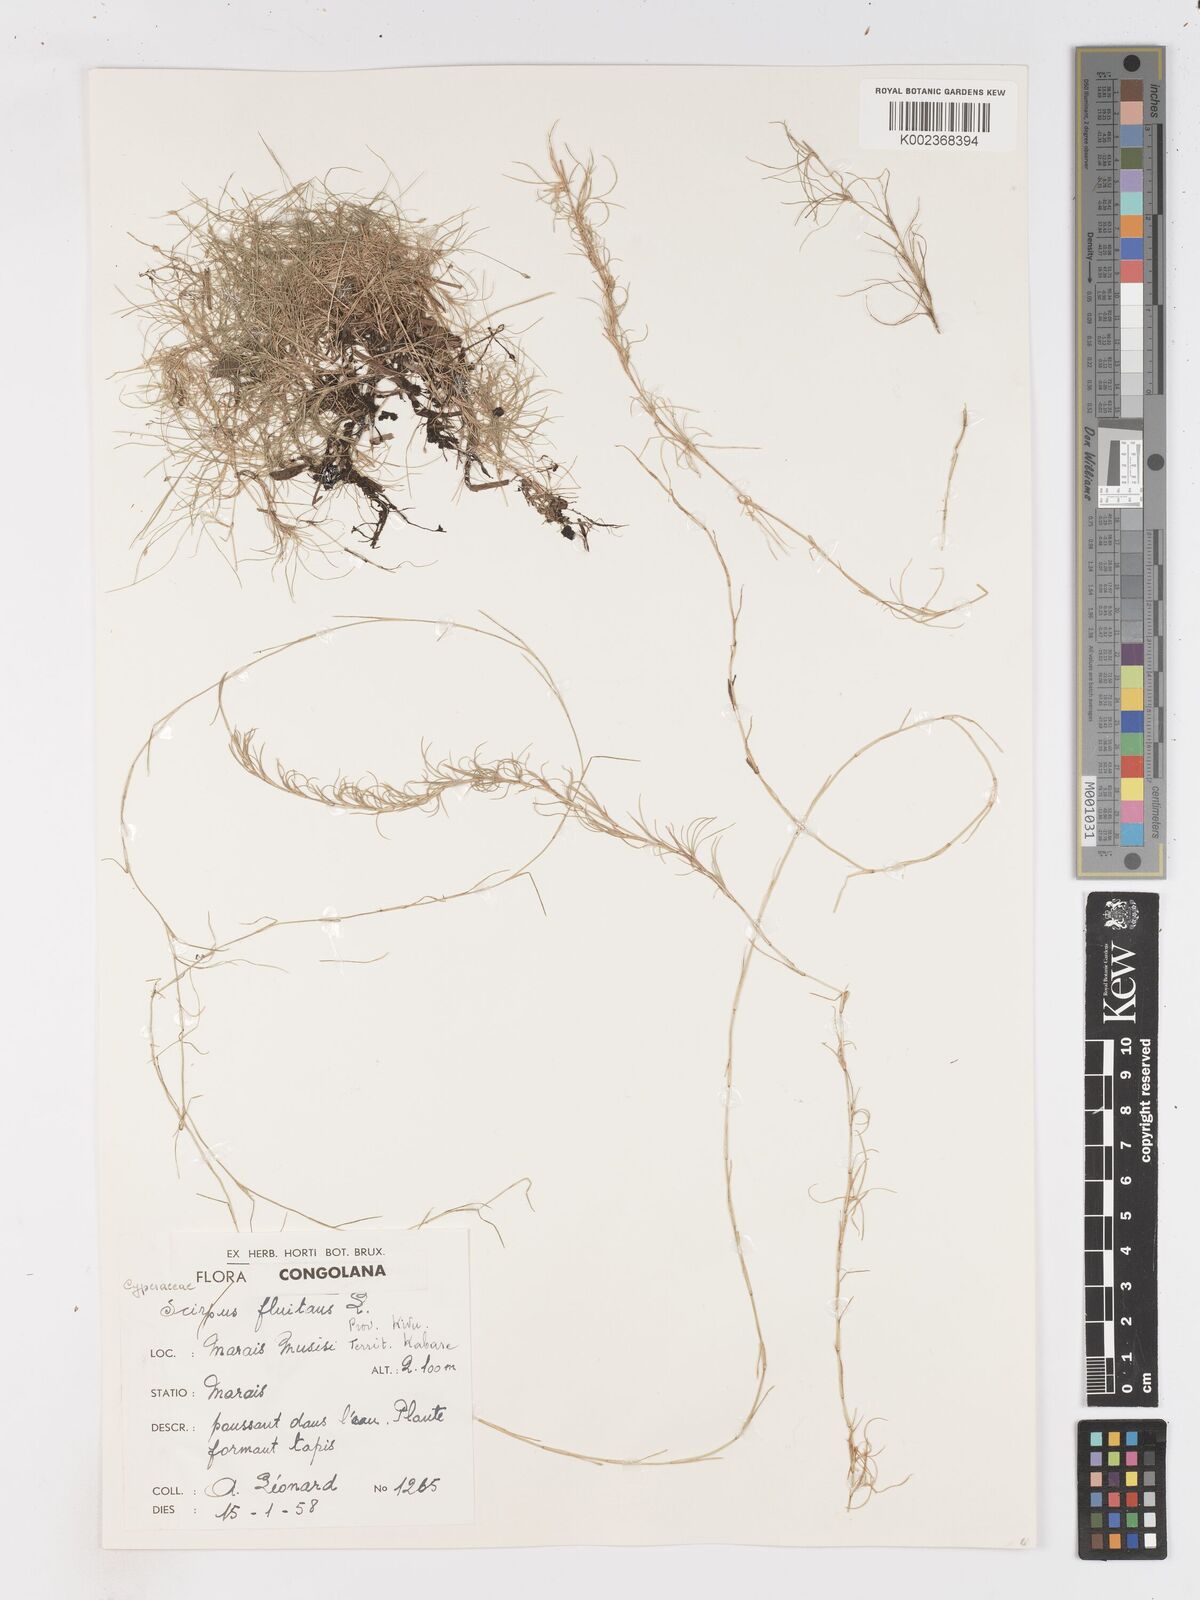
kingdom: Plantae
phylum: Tracheophyta
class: Liliopsida
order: Poales
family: Cyperaceae
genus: Isolepis
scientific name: Isolepis fluitans
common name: Floating club-rush
